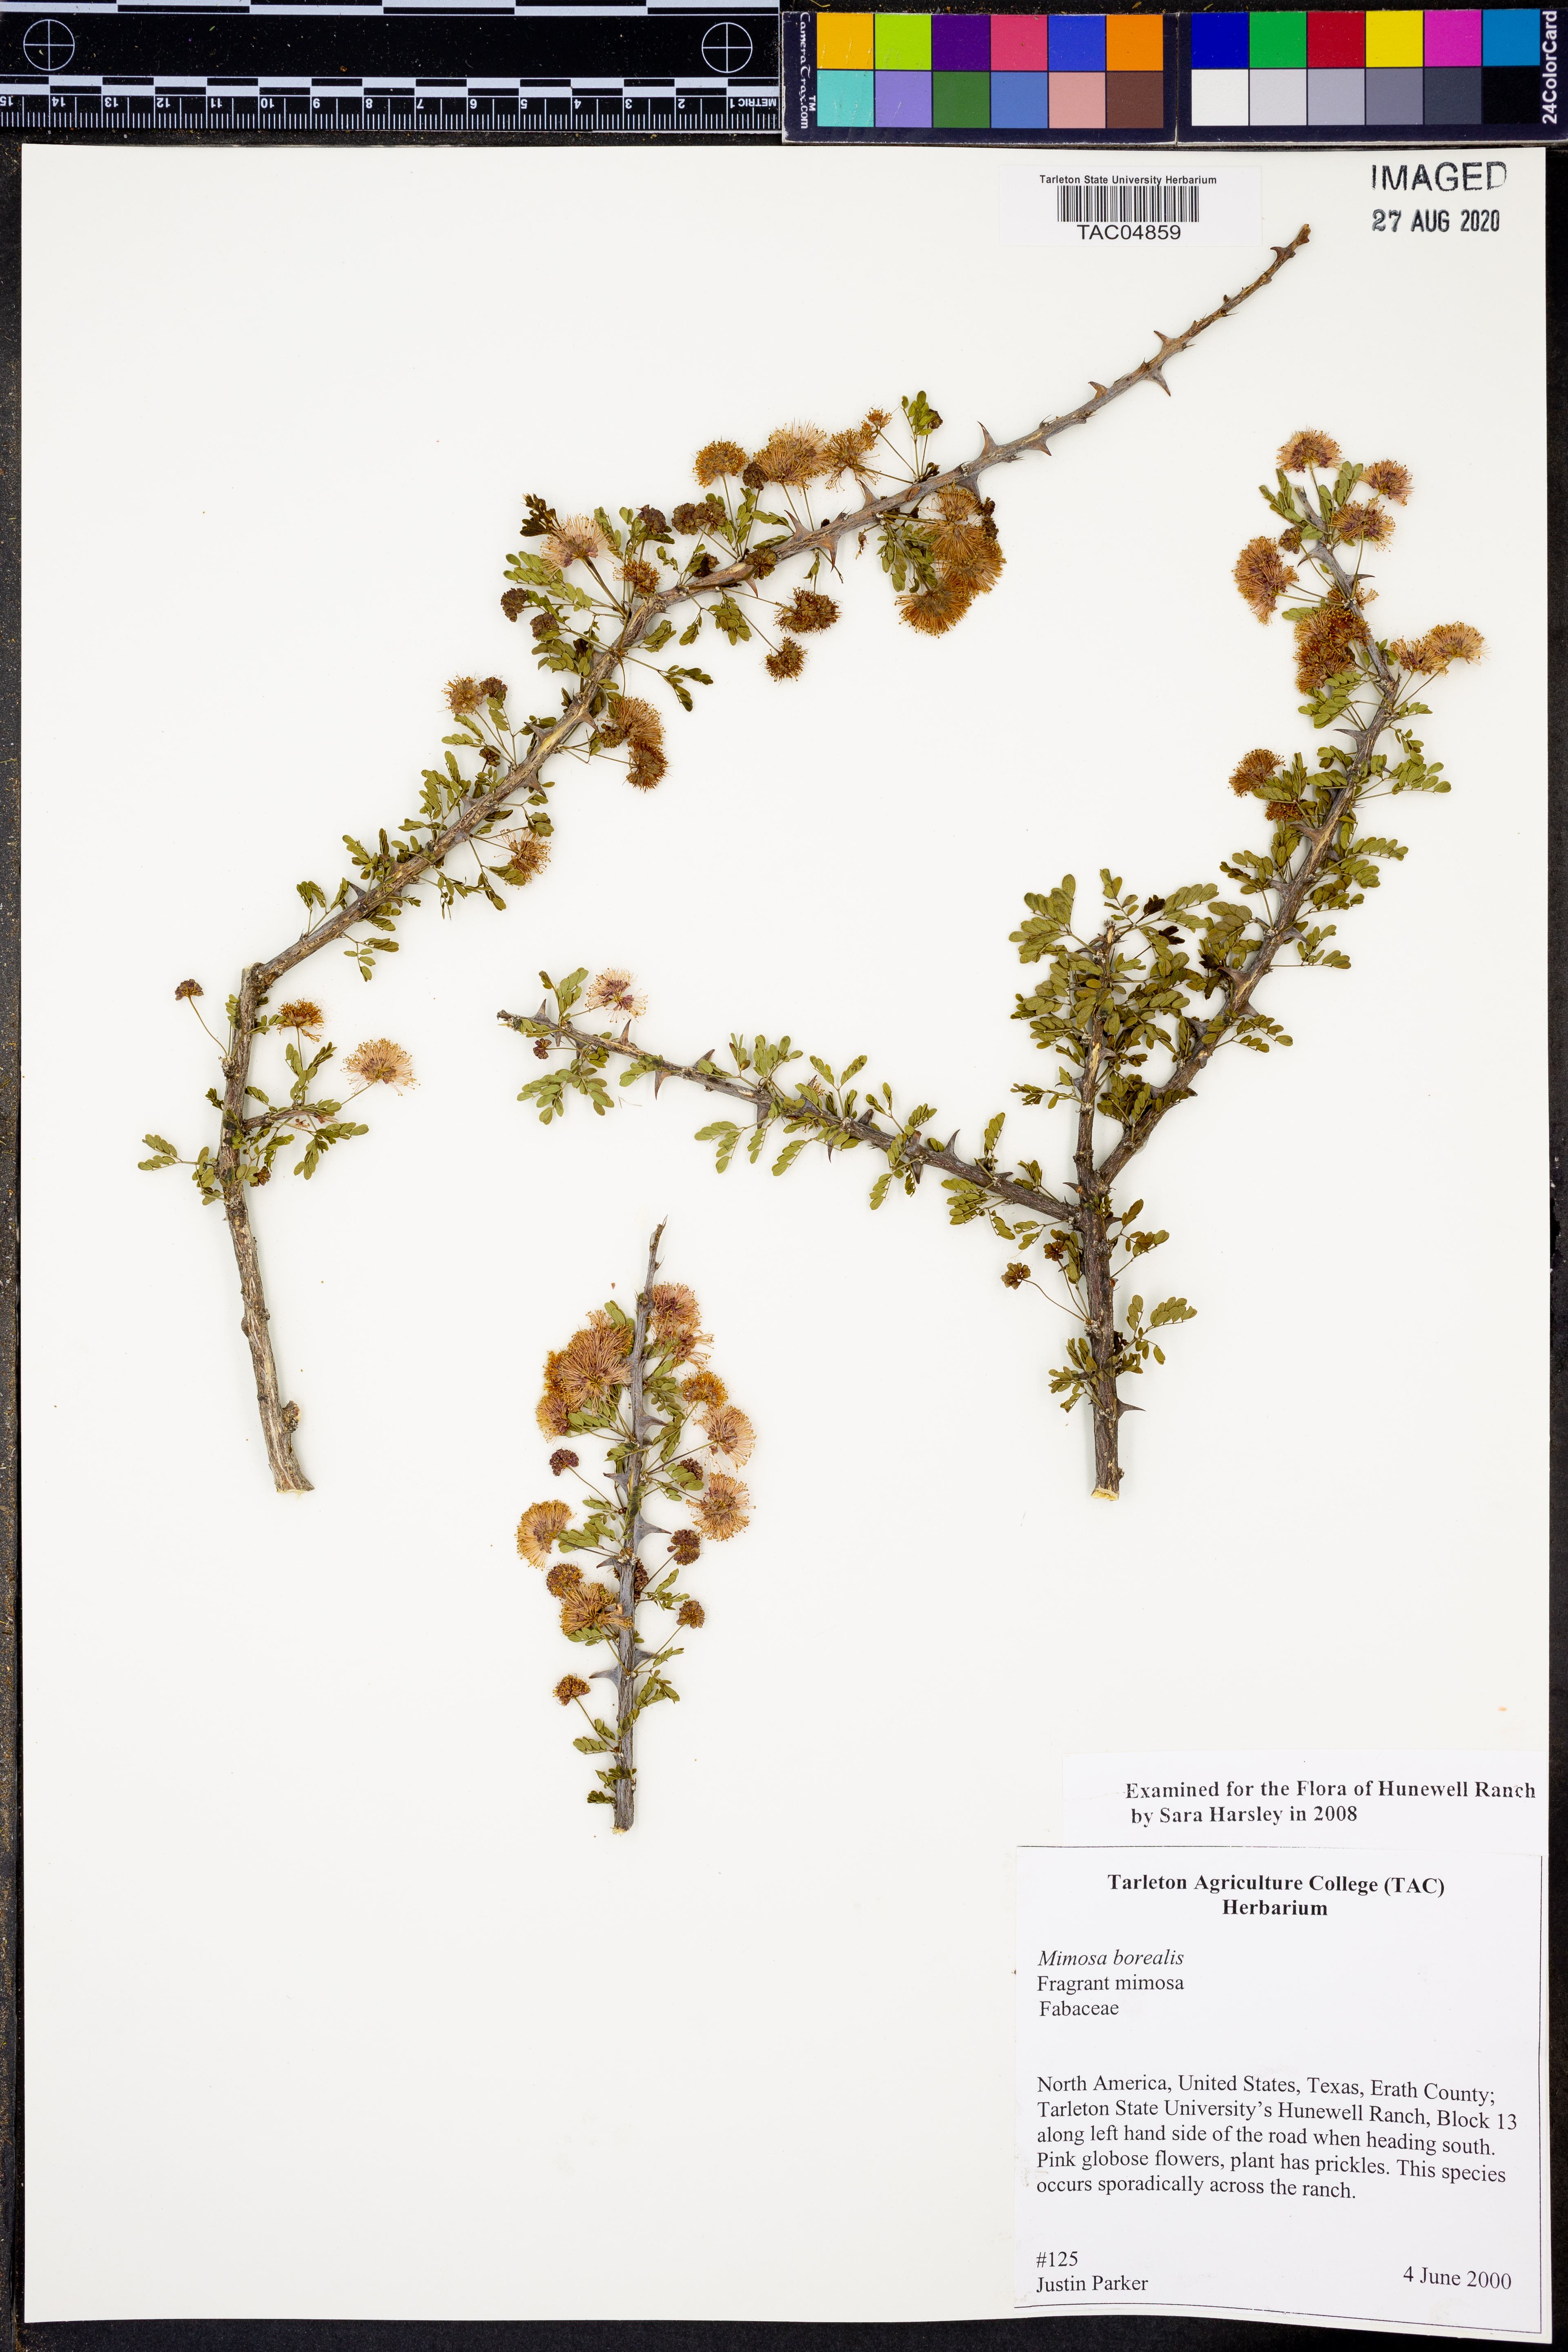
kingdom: Plantae
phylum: Tracheophyta
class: Magnoliopsida
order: Fabales
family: Fabaceae
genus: Mimosa
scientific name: Mimosa borealis
